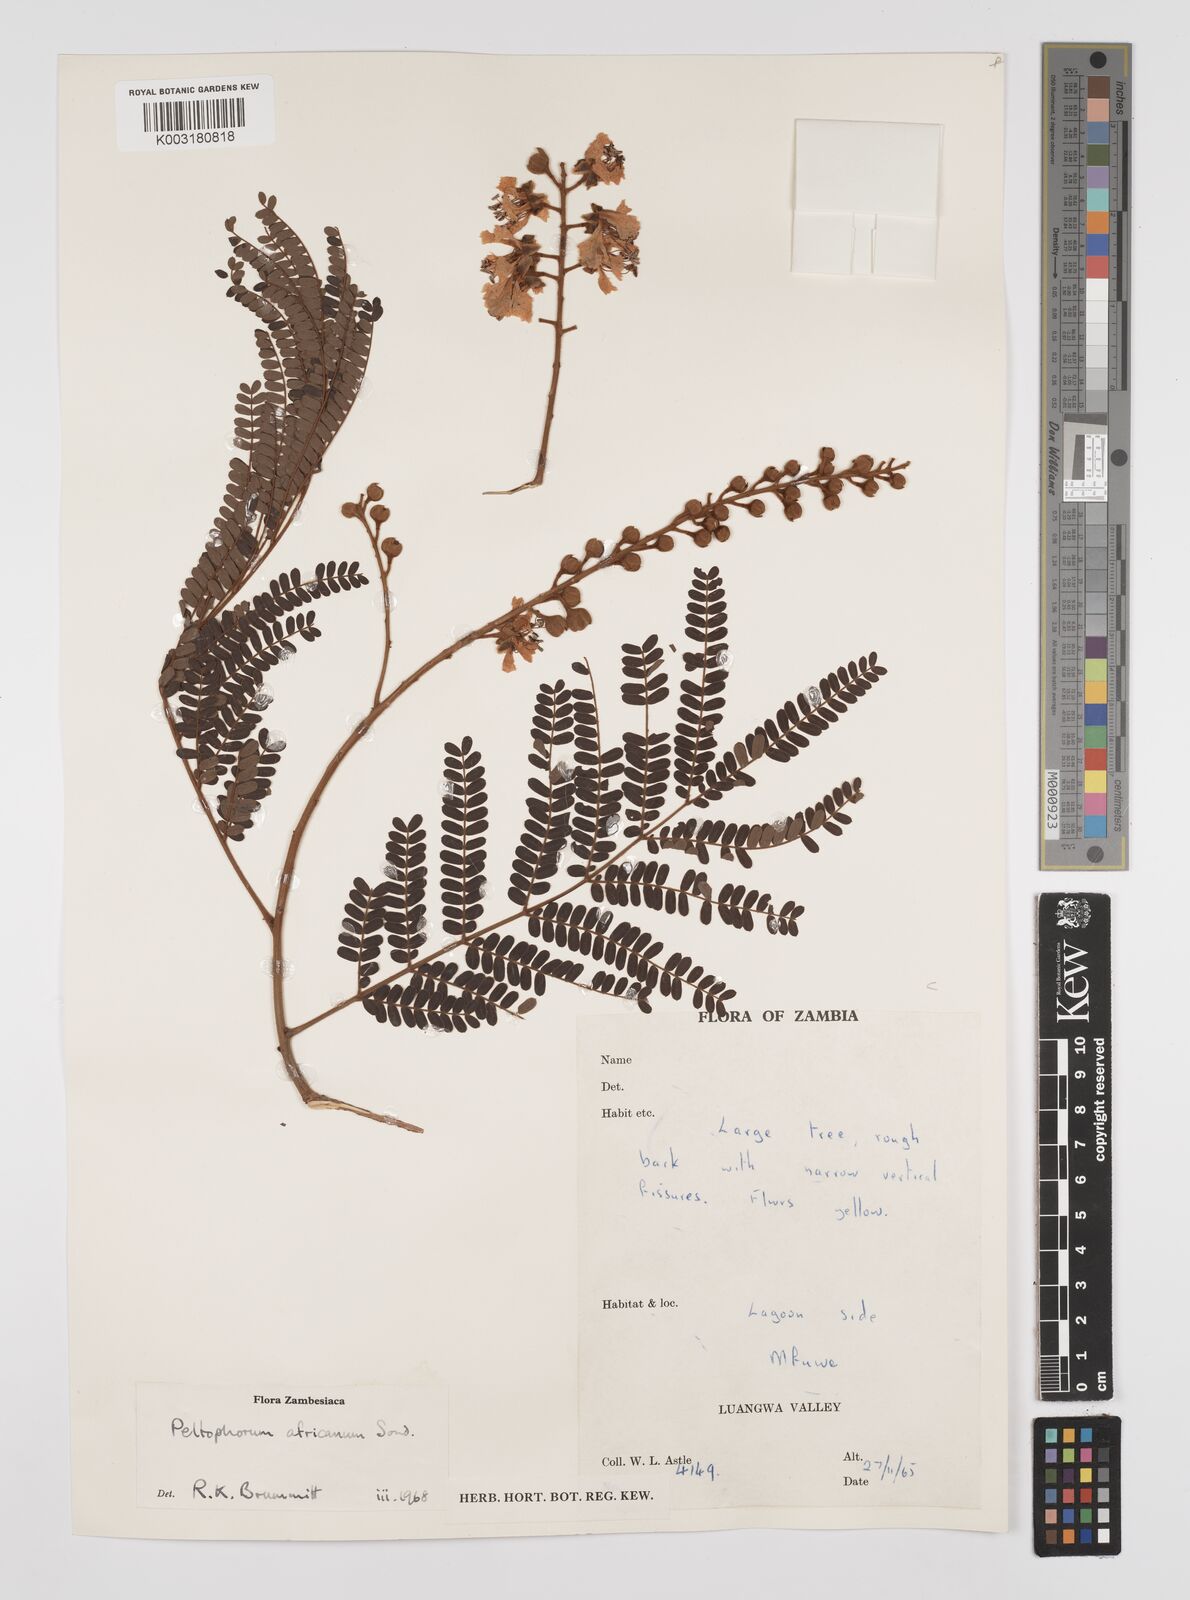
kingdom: Plantae
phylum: Tracheophyta
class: Magnoliopsida
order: Fabales
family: Fabaceae
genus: Peltophorum
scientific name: Peltophorum africanum
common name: African black wattle
